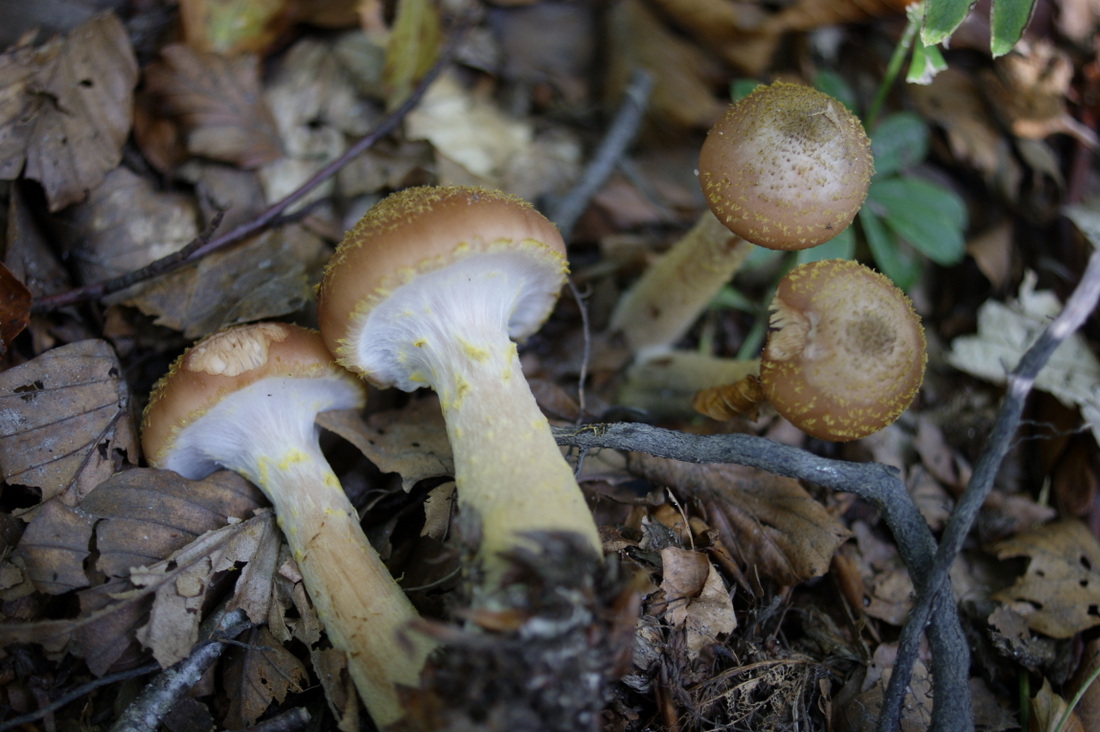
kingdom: Fungi
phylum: Basidiomycota
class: Agaricomycetes
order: Agaricales
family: Physalacriaceae
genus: Armillaria
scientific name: Armillaria lutea
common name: køllestokket honningsvamp
